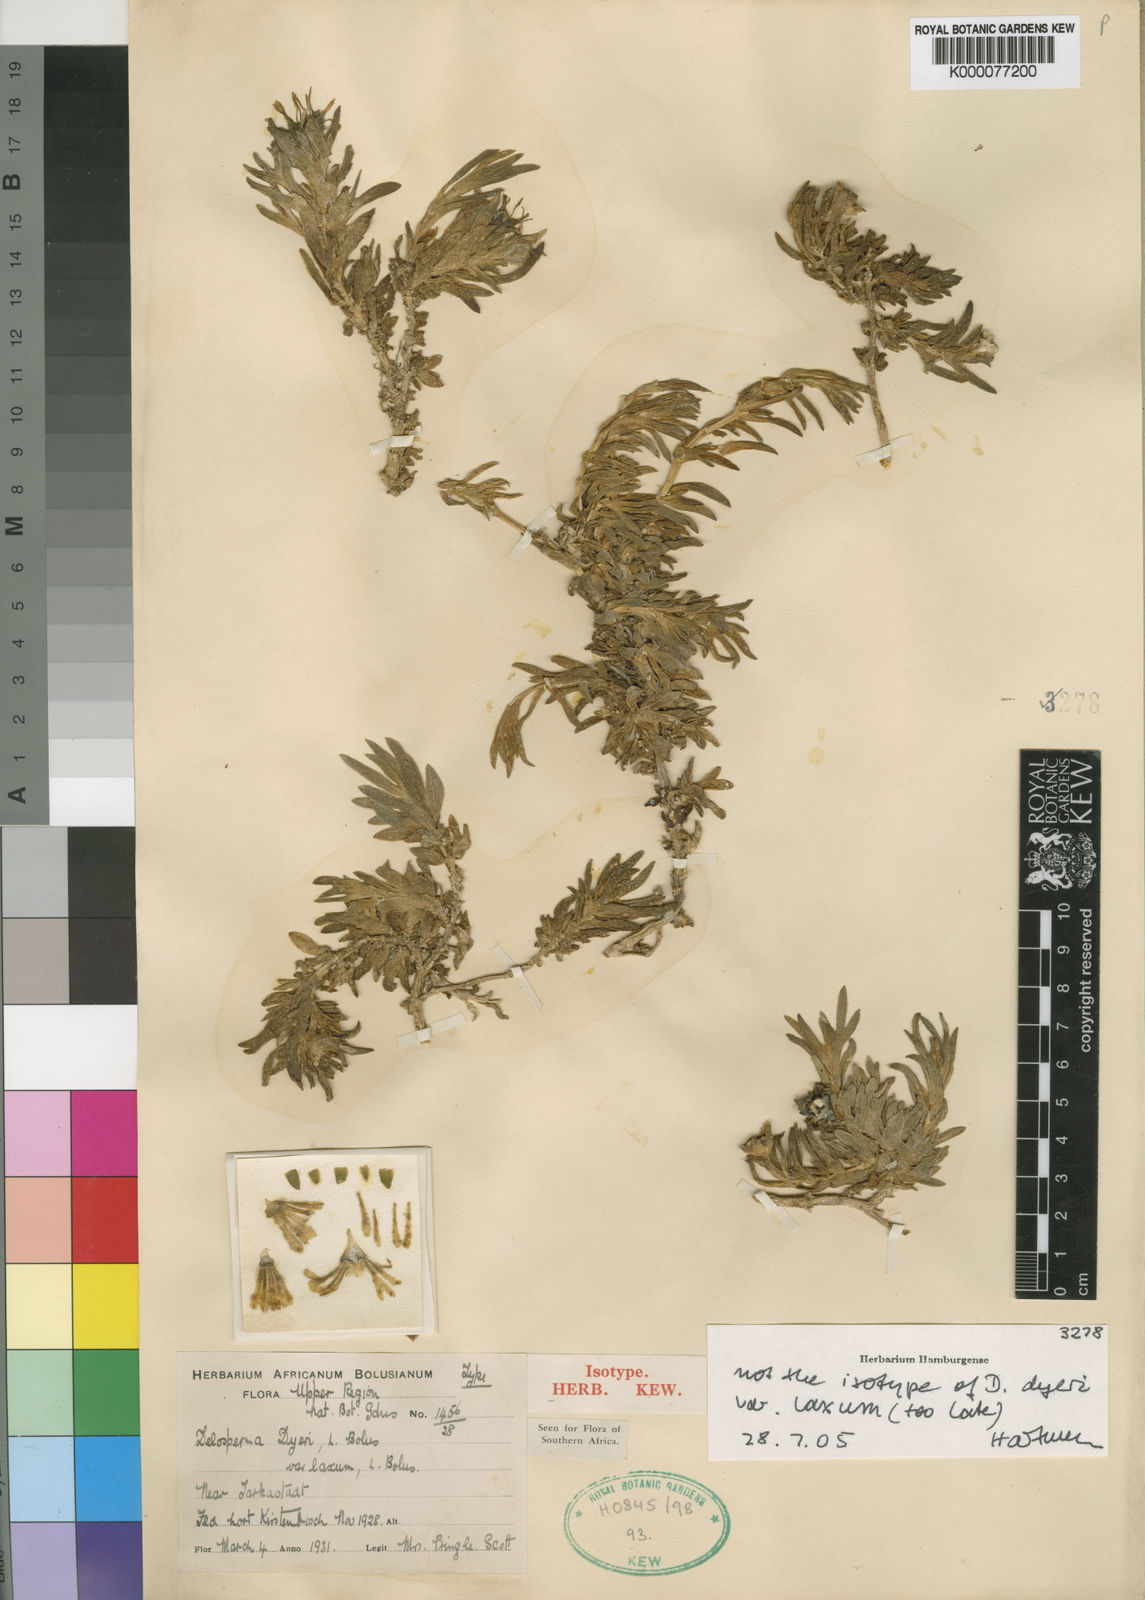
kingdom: Plantae
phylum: Tracheophyta
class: Magnoliopsida
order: Caryophyllales
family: Aizoaceae
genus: Delosperma
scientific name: Delosperma dyeri
